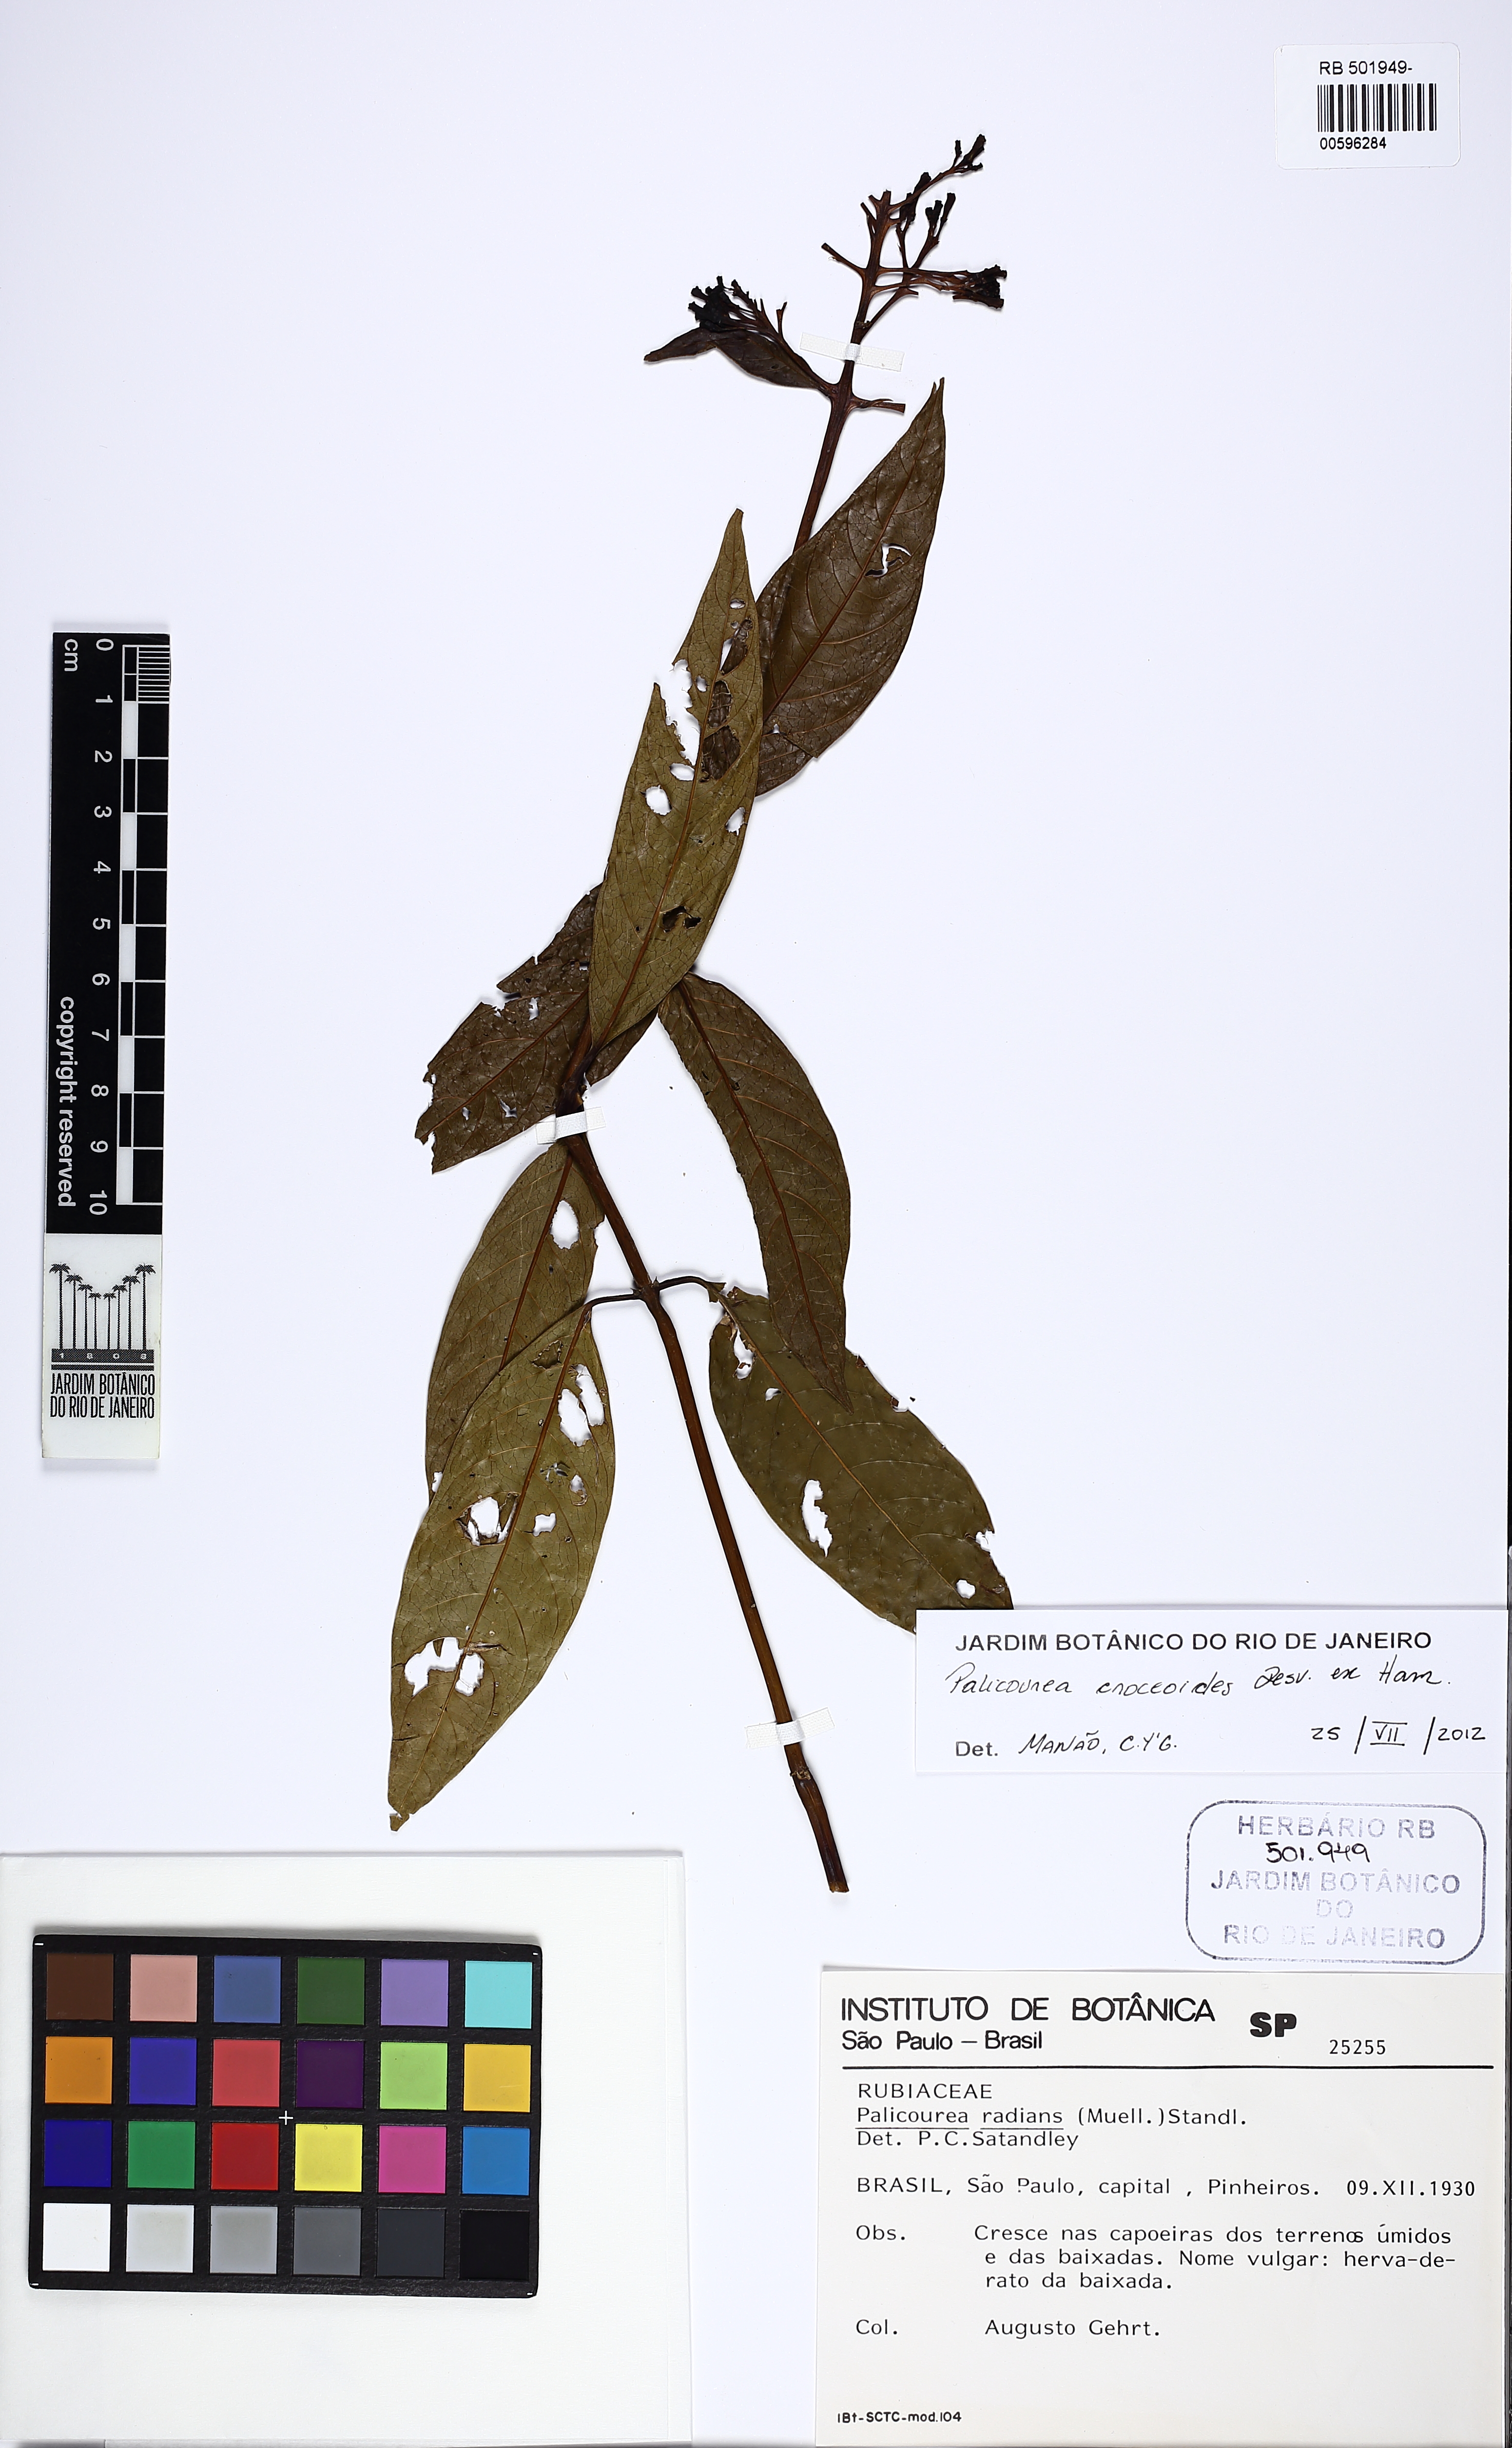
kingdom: Plantae
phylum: Tracheophyta
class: Magnoliopsida
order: Gentianales
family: Rubiaceae
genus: Palicourea
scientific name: Palicourea radians
